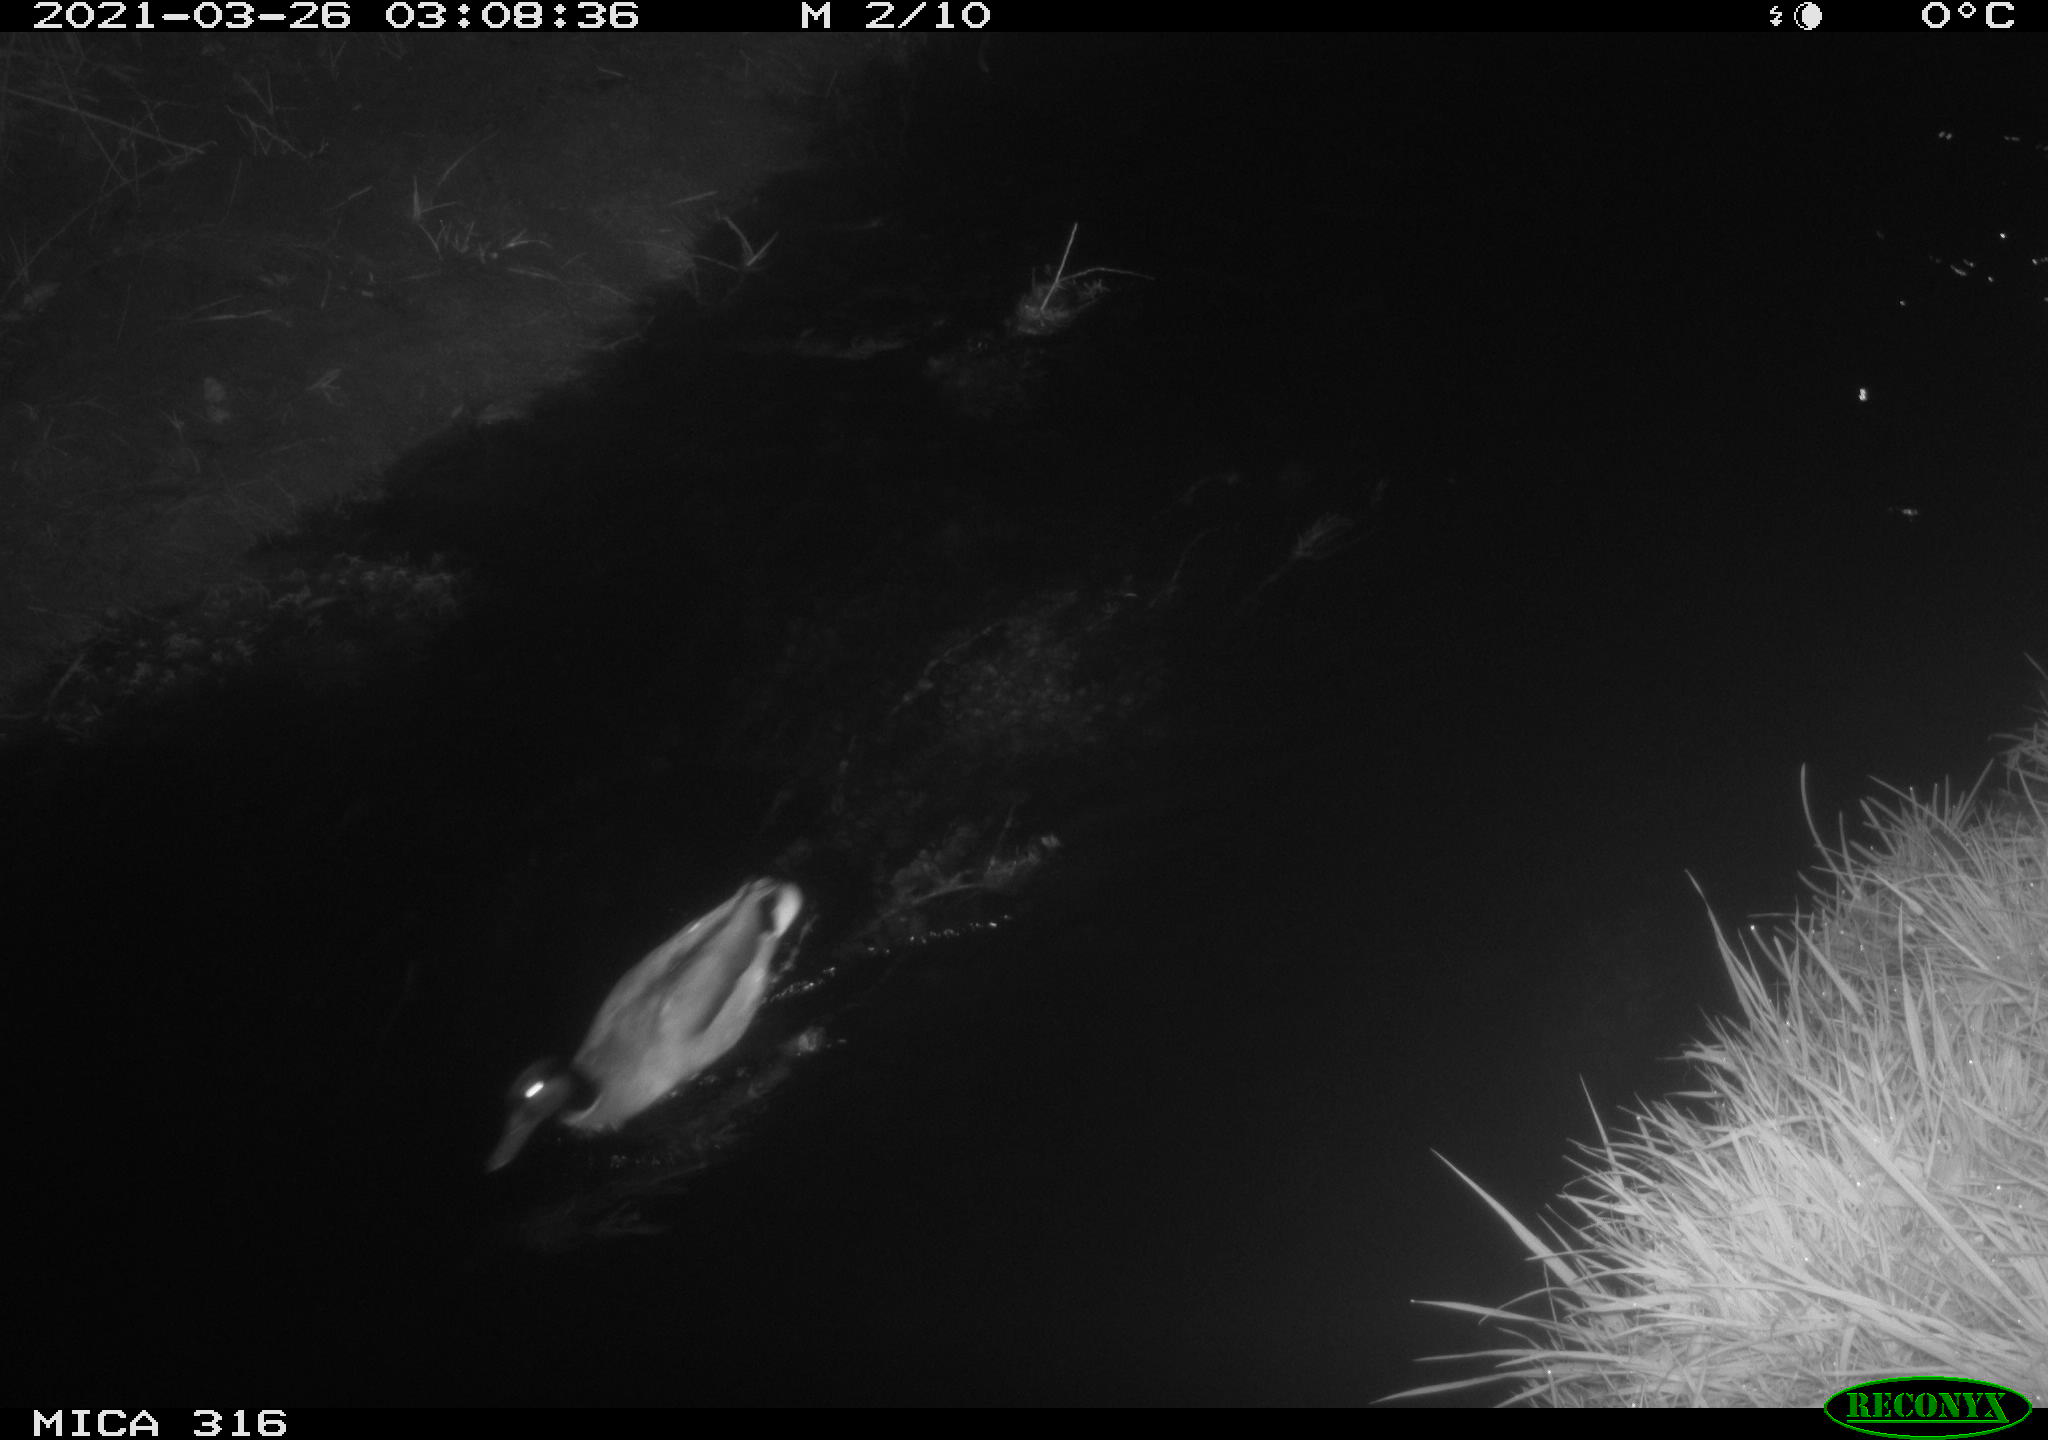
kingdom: Animalia
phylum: Chordata
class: Aves
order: Anseriformes
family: Anatidae
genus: Anas
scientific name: Anas platyrhynchos
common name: Mallard
